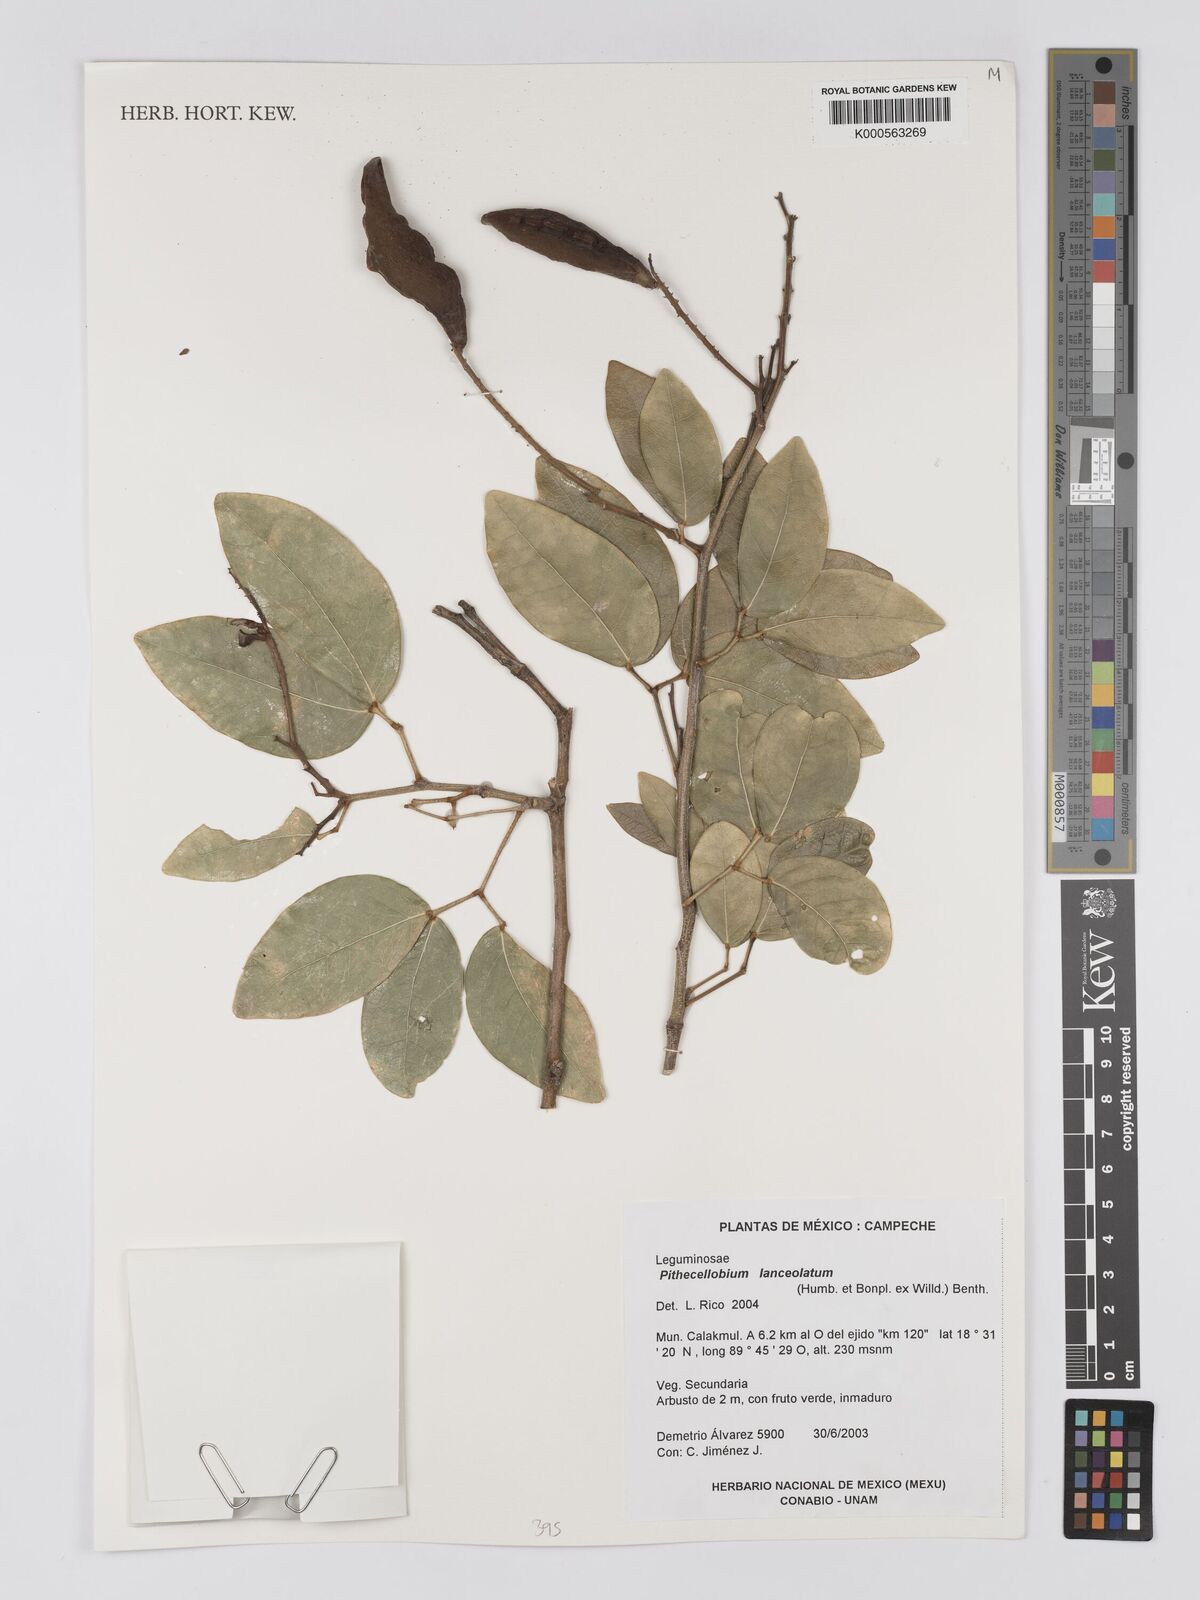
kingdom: Plantae
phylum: Tracheophyta
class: Magnoliopsida
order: Fabales
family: Fabaceae
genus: Pithecellobium
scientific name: Pithecellobium lanceolatum
